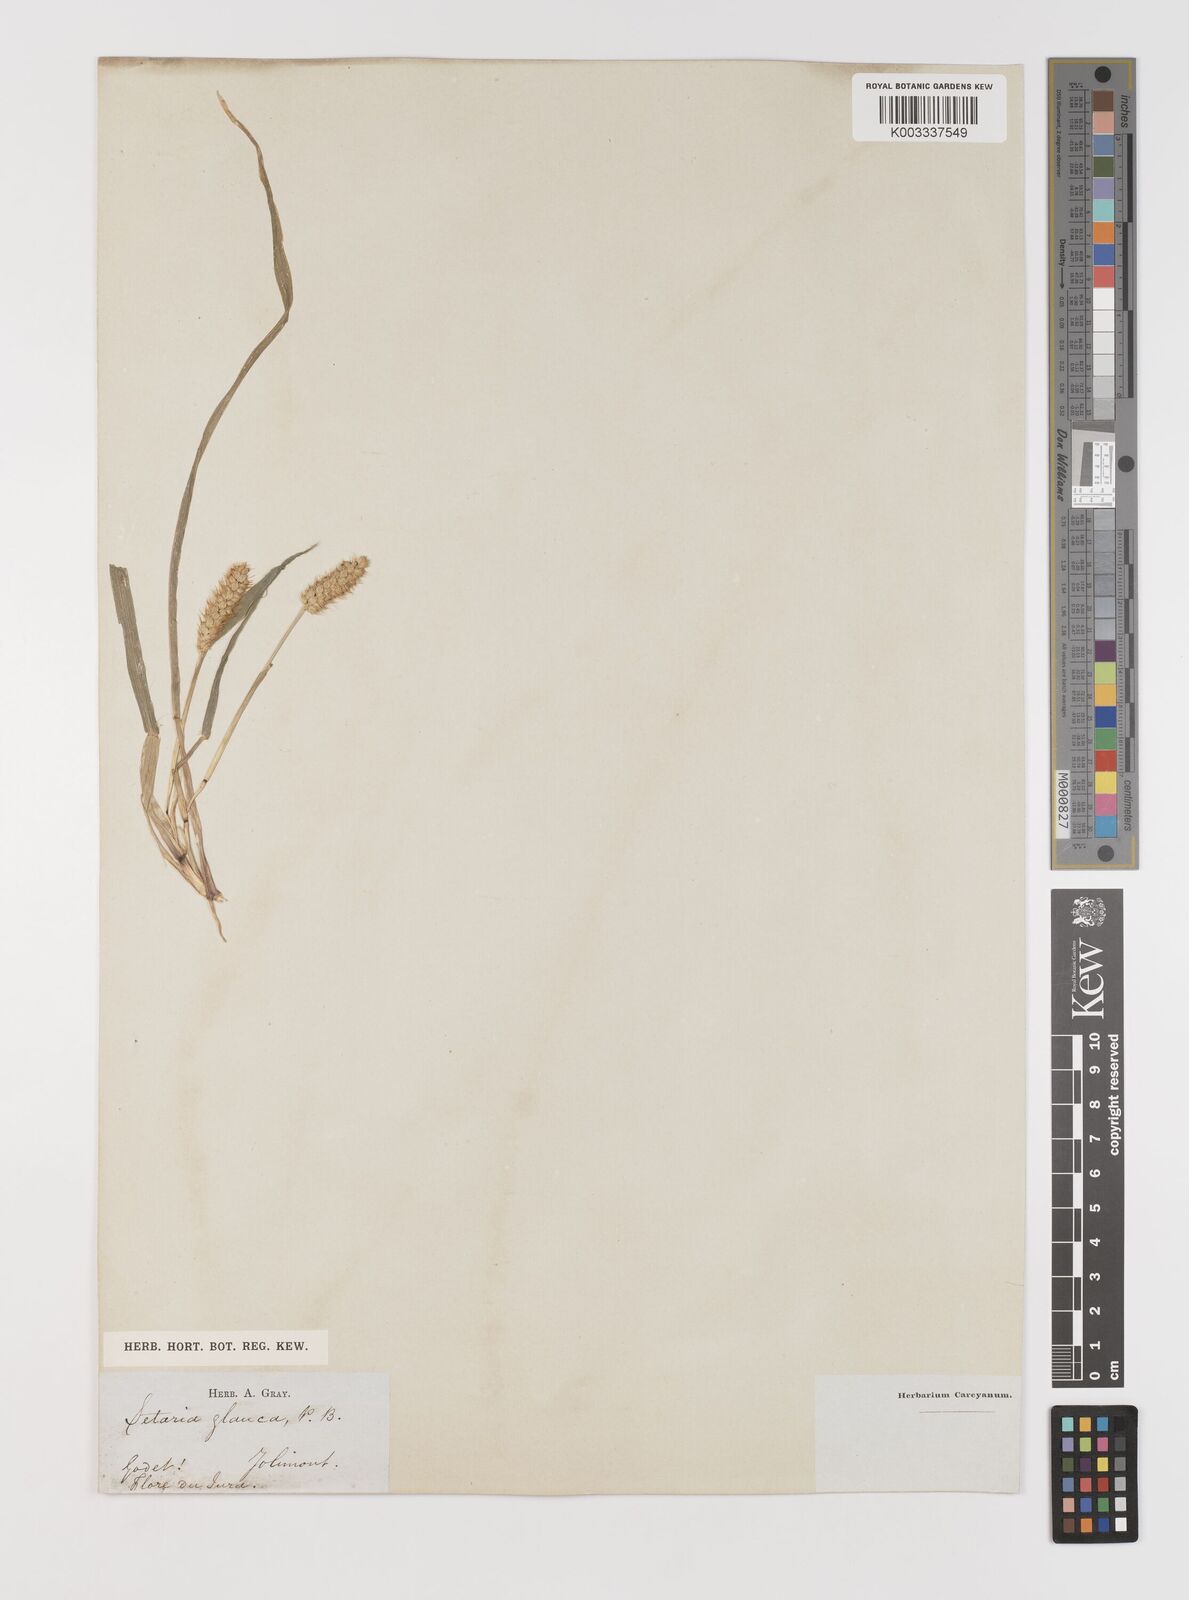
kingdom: Plantae
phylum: Tracheophyta
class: Liliopsida
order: Poales
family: Poaceae
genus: Setaria
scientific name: Setaria pumila
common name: Yellow bristle-grass
